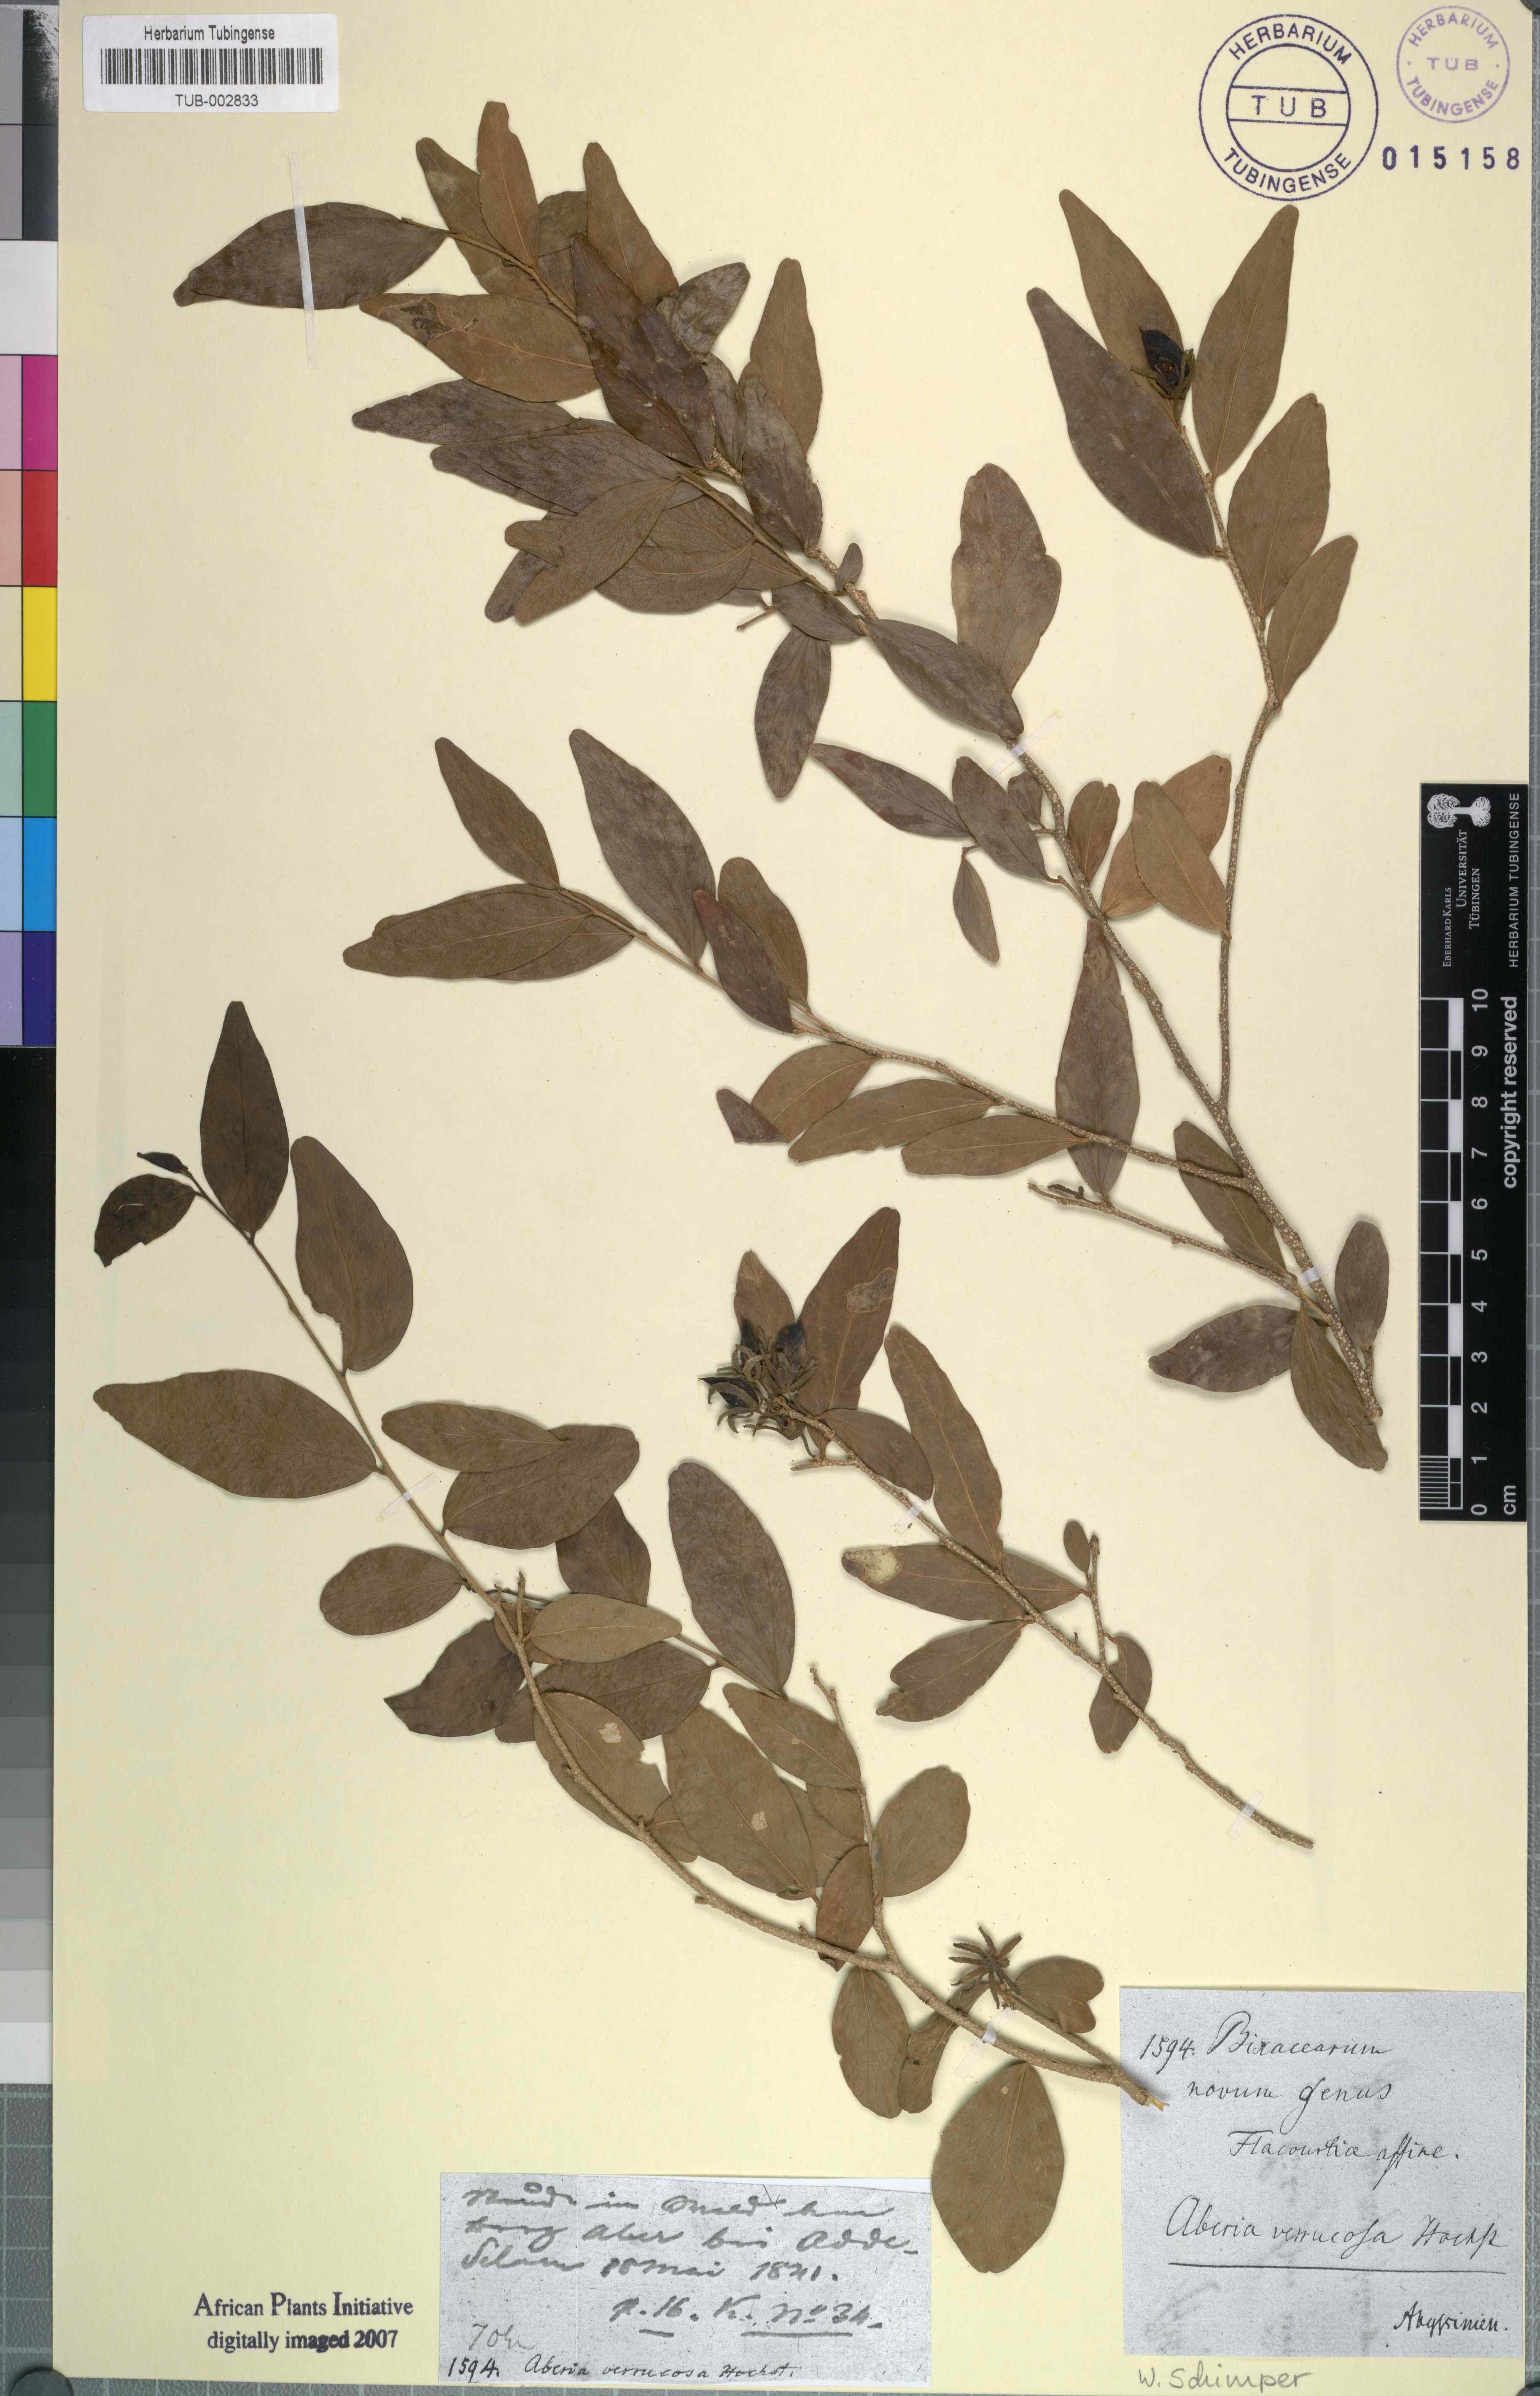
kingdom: Plantae
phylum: Tracheophyta
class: Magnoliopsida
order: Malpighiales
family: Salicaceae
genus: Dovyalis
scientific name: Dovyalis verrucosa
